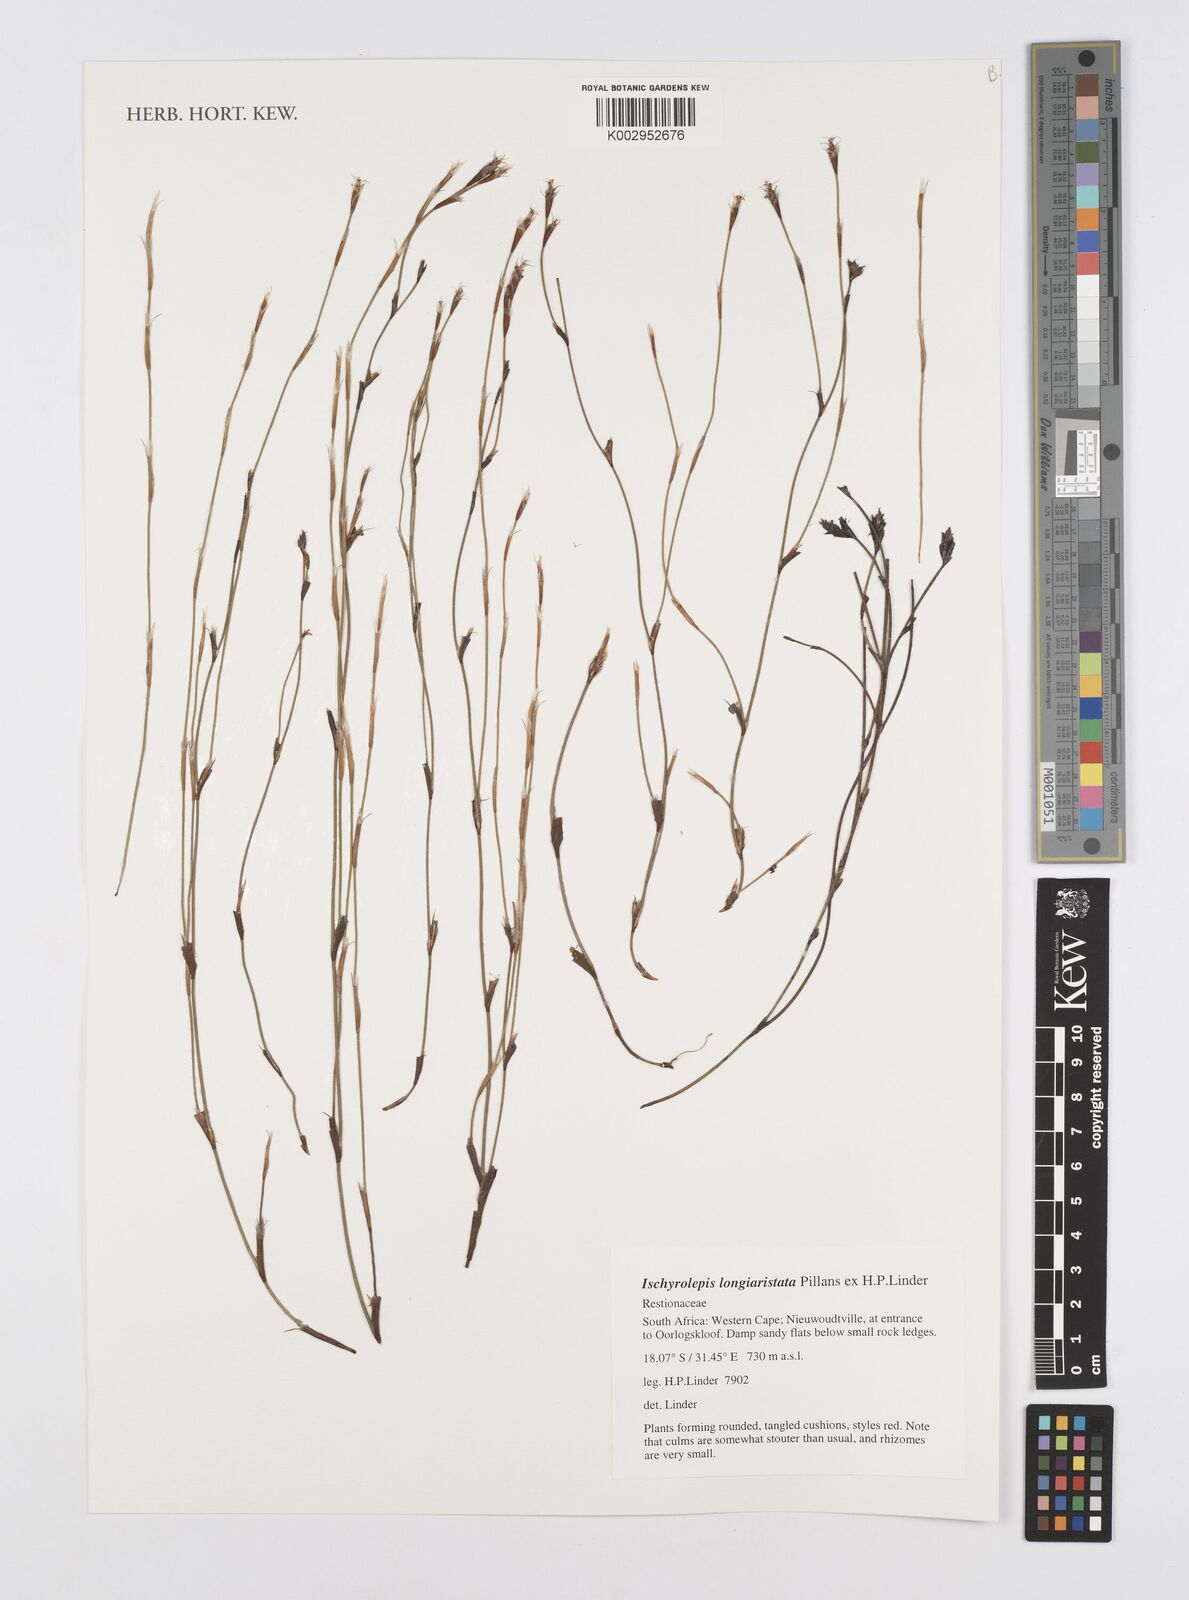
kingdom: Plantae
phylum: Tracheophyta
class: Liliopsida
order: Poales
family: Restionaceae
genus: Restio
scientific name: Restio longiaristatus
